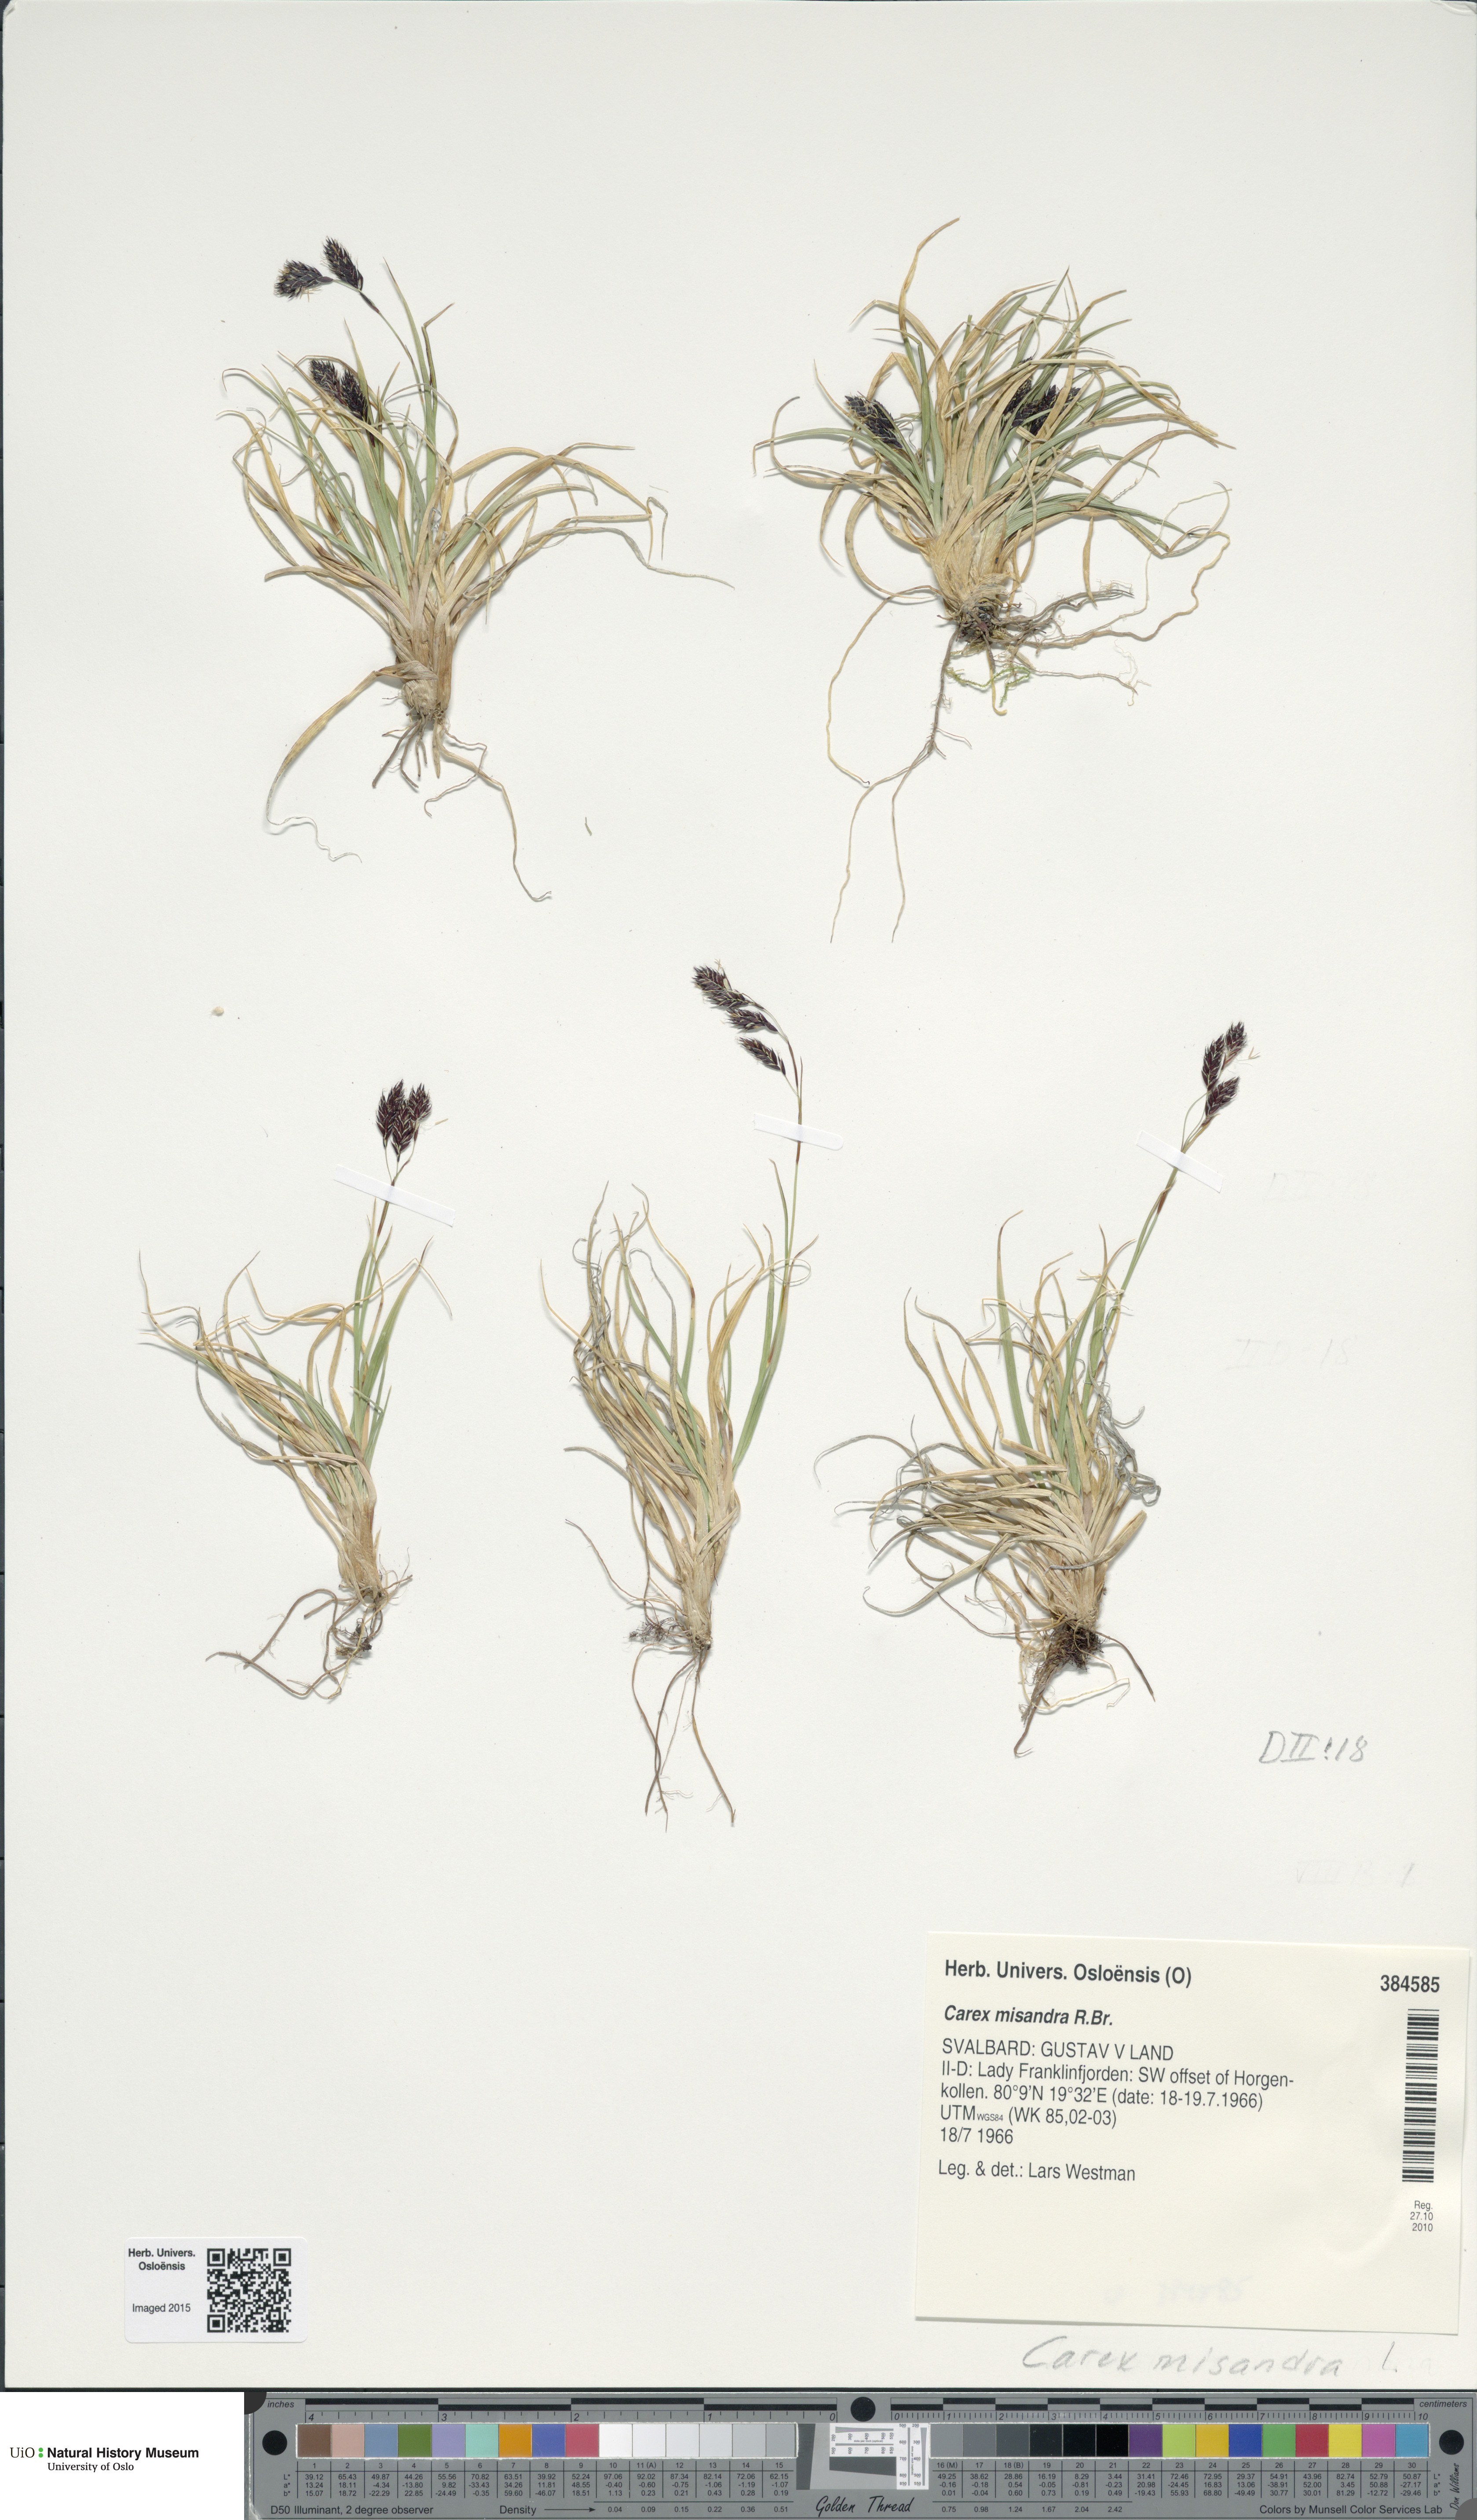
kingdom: Plantae
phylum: Tracheophyta
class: Liliopsida
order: Poales
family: Cyperaceae
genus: Carex
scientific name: Carex fuliginosa
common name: Few-flowered sedge
